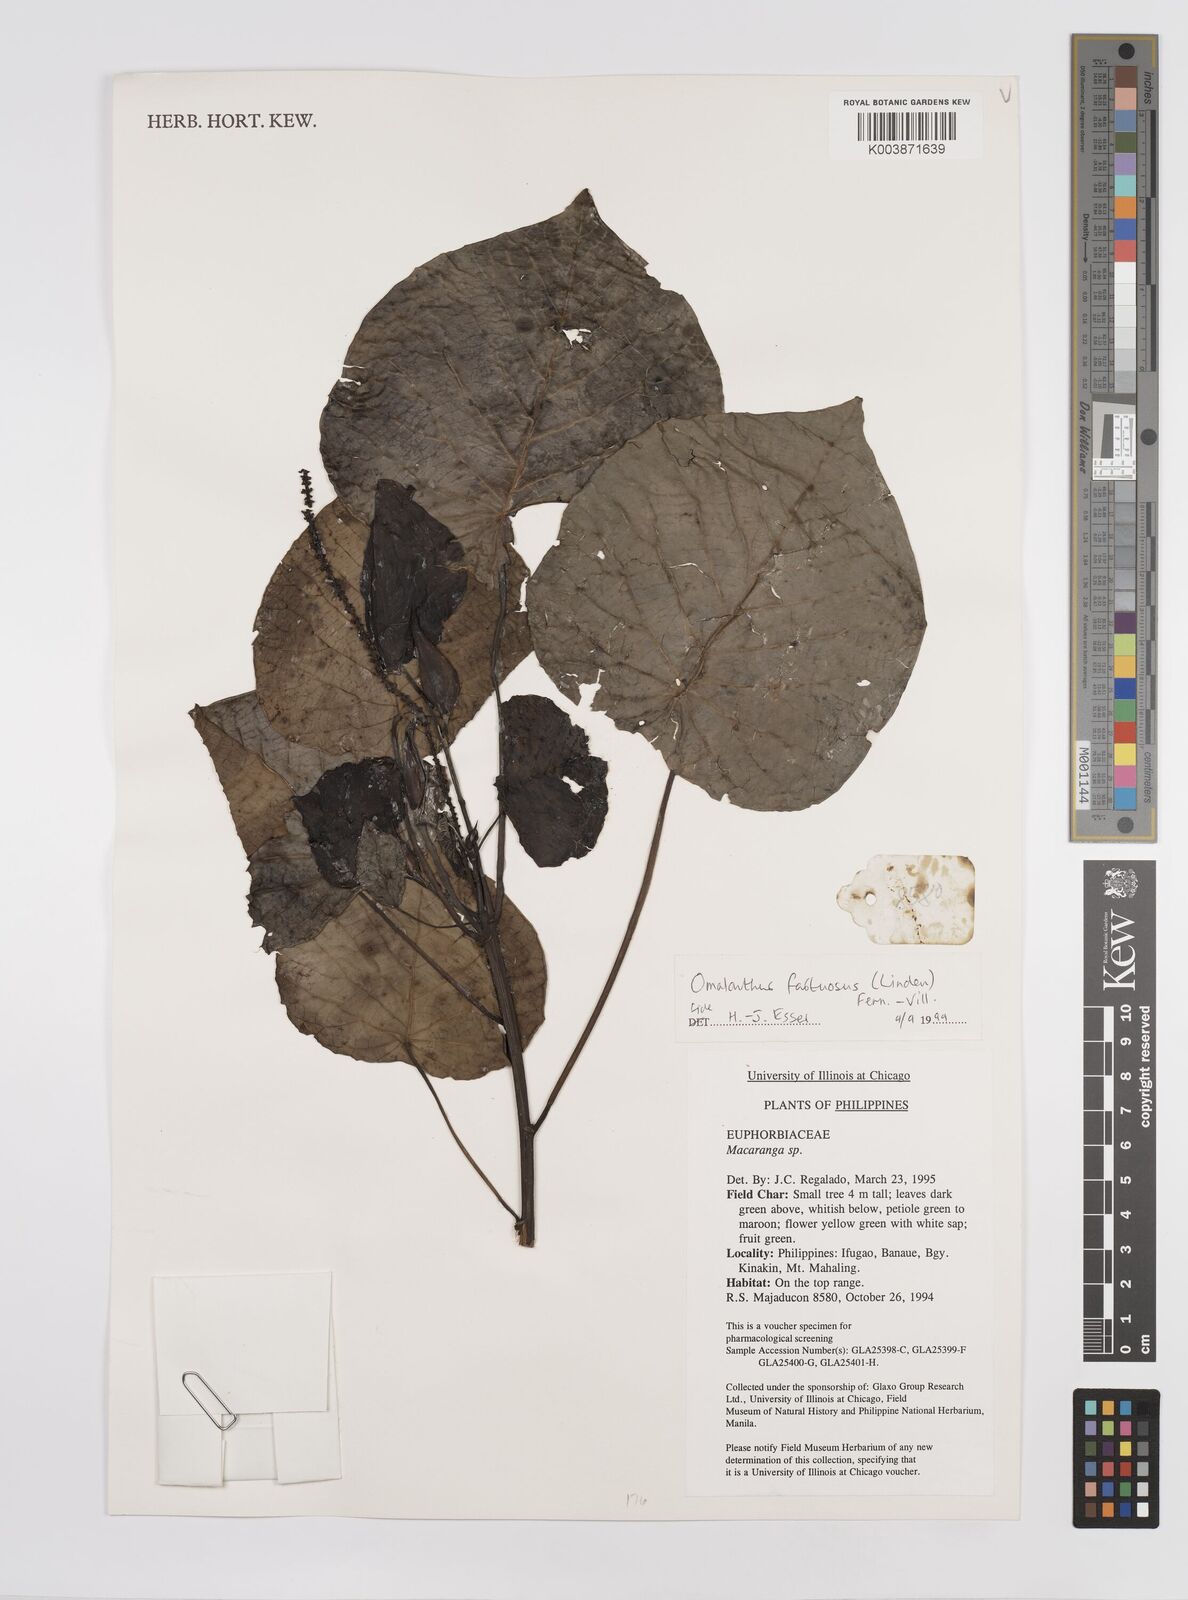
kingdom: Plantae
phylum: Tracheophyta
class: Magnoliopsida
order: Malpighiales
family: Euphorbiaceae
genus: Homalanthus
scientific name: Homalanthus fastuosus
